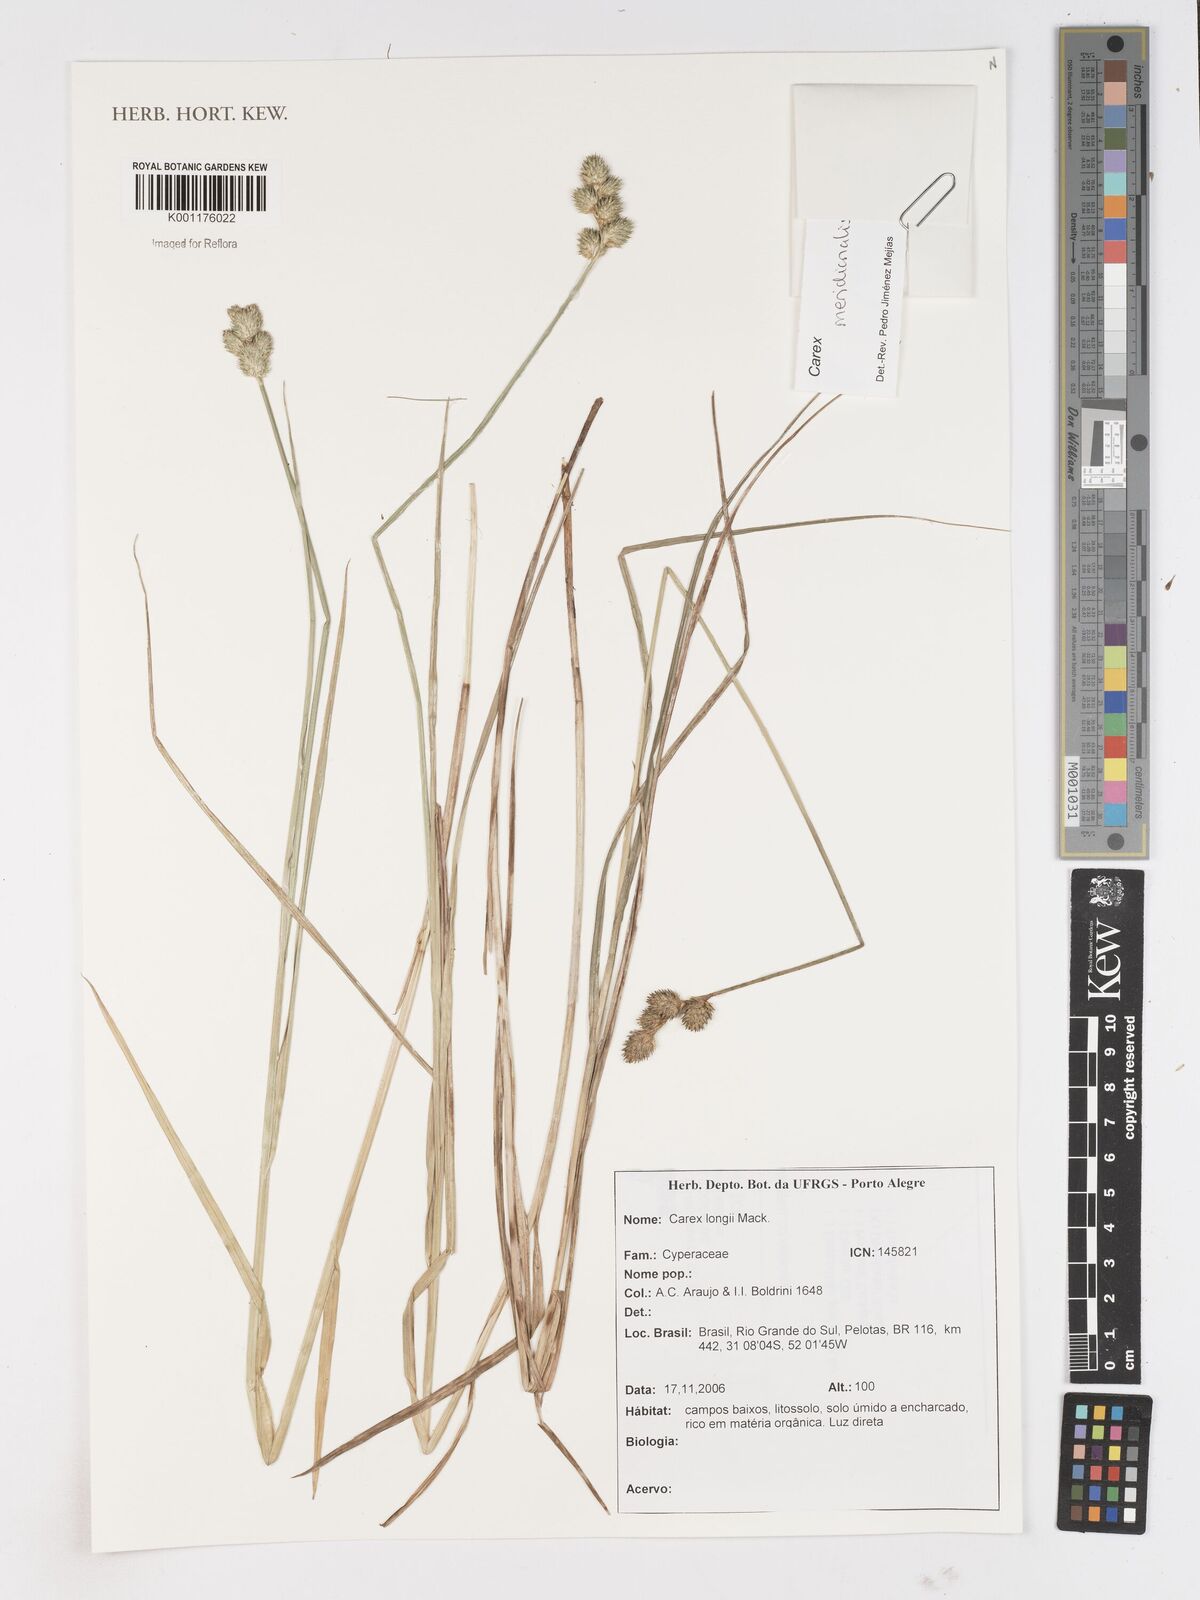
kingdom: Plantae
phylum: Tracheophyta
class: Liliopsida
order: Poales
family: Cyperaceae
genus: Carex
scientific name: Carex meridionalis
